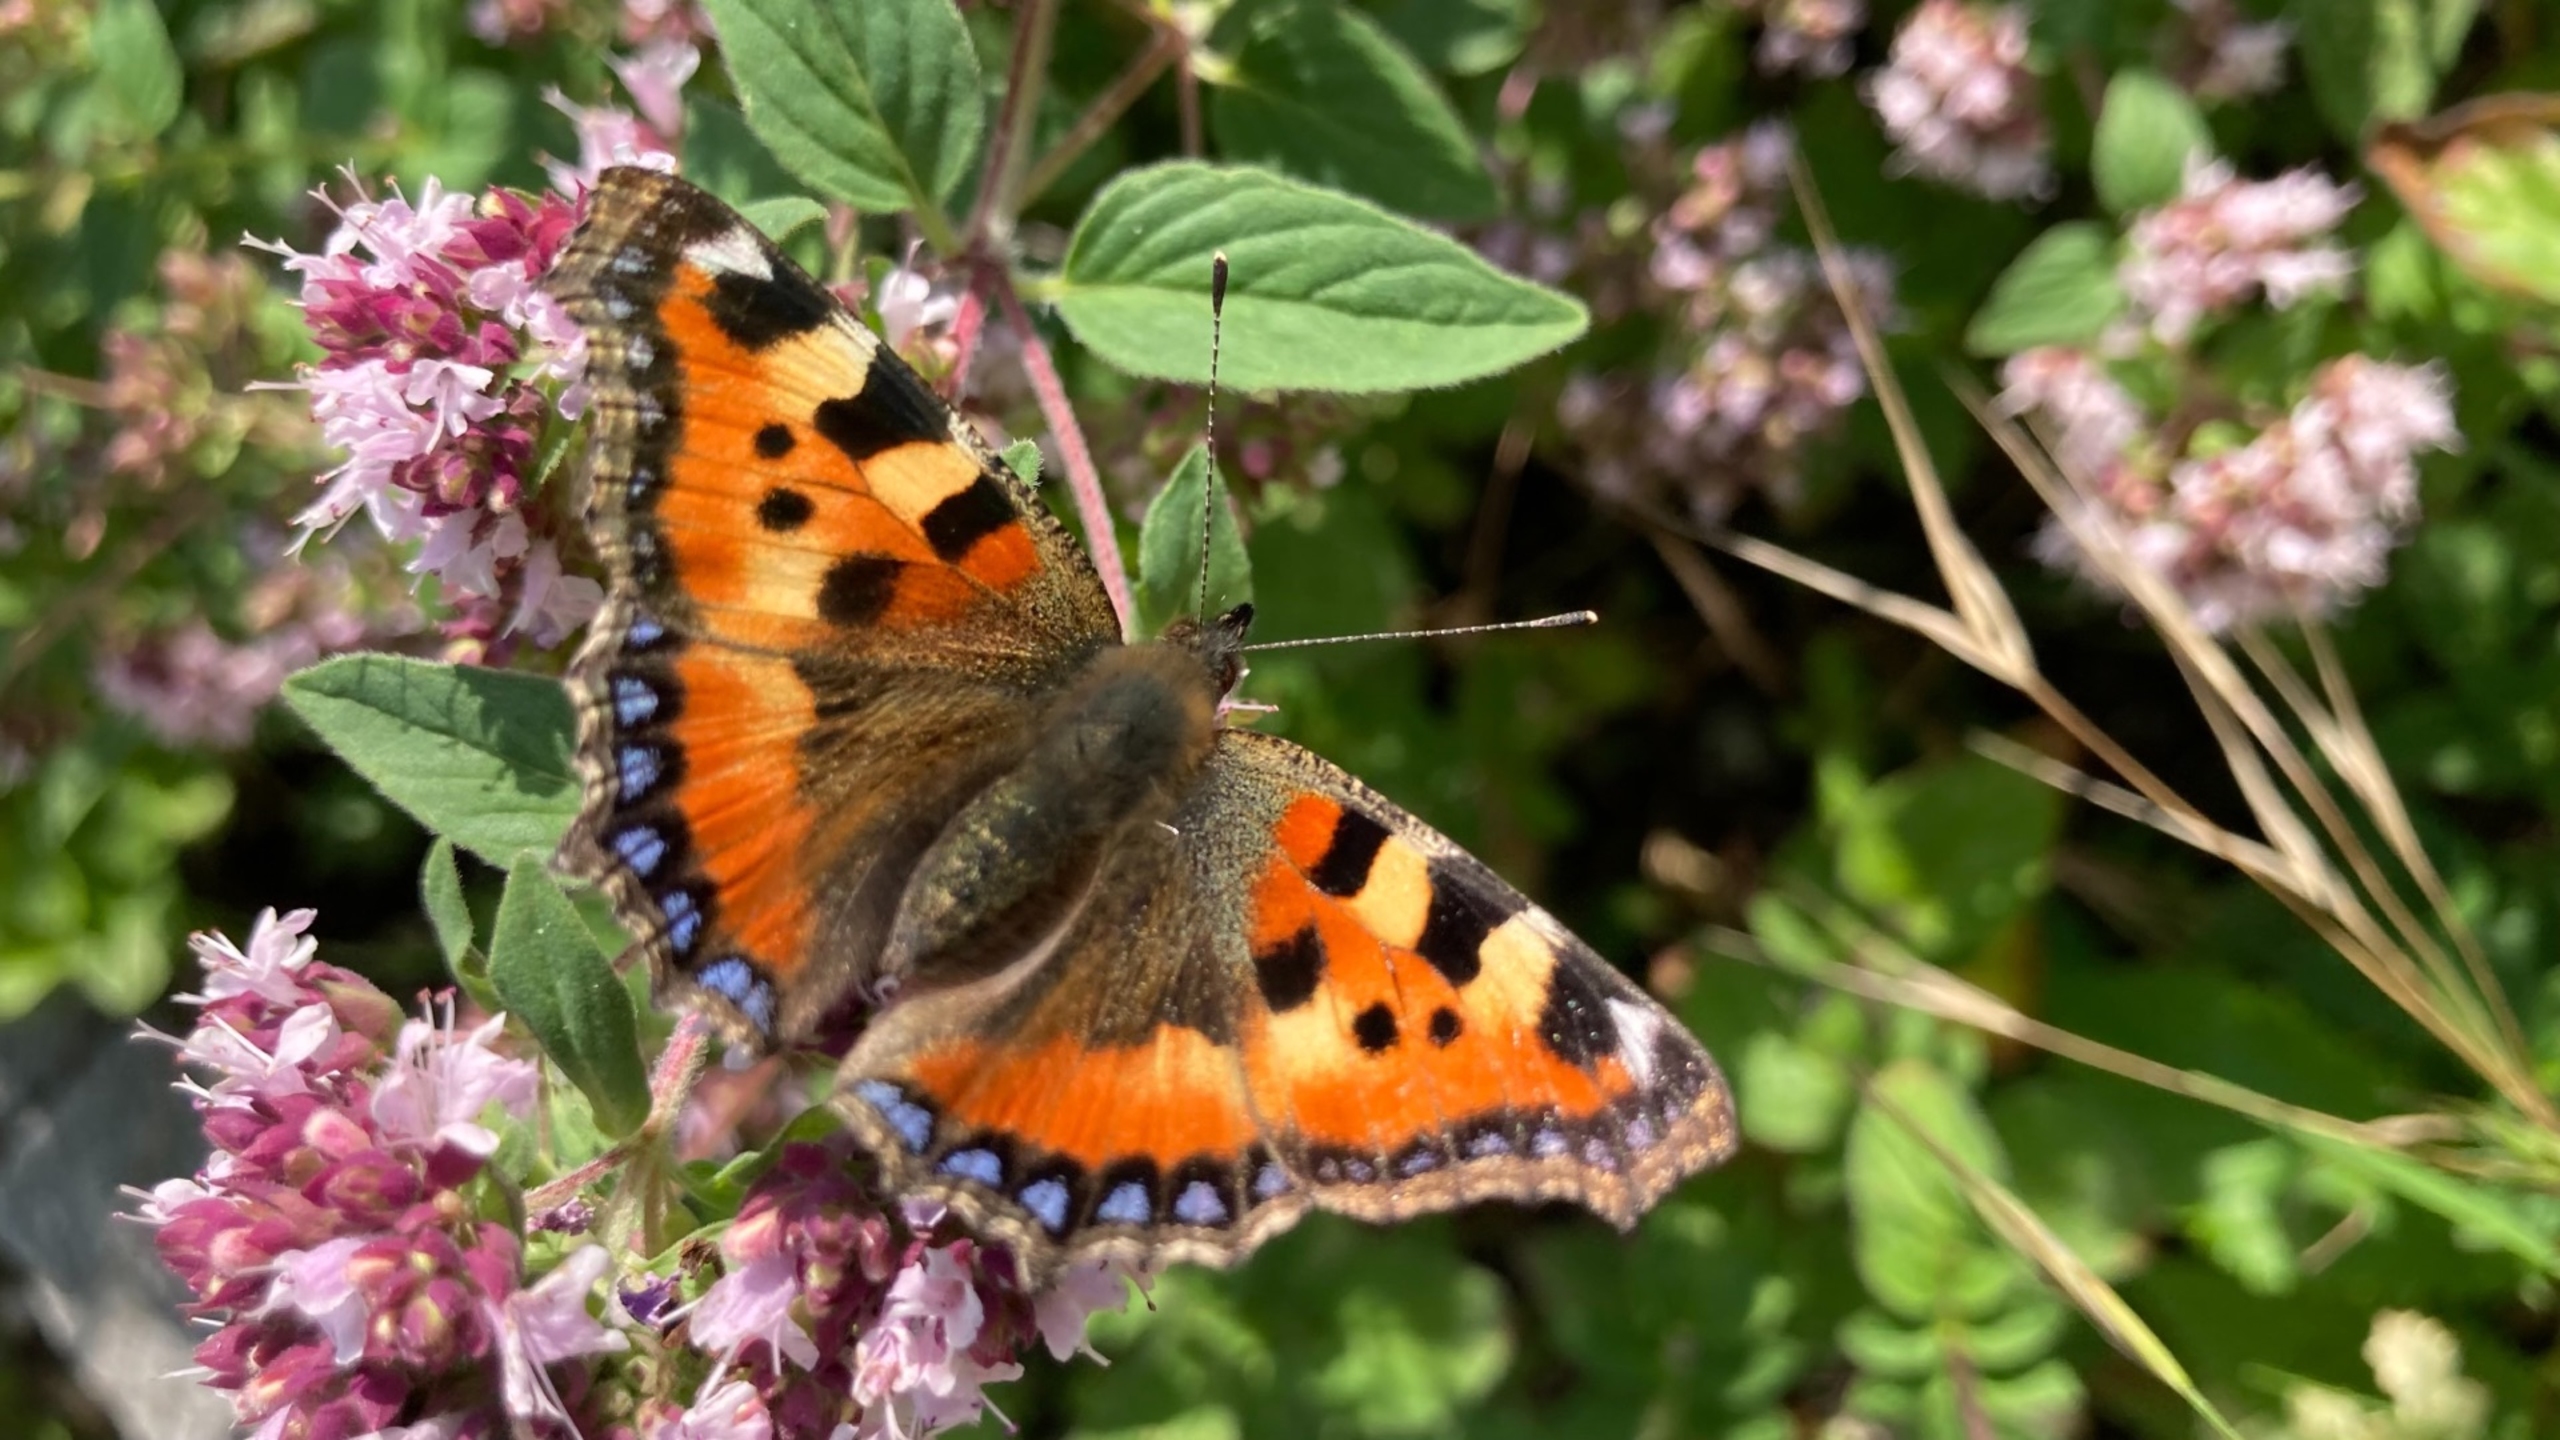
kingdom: Animalia
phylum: Arthropoda
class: Insecta
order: Lepidoptera
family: Nymphalidae
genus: Aglais
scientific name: Aglais urticae
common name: Nældens takvinge
